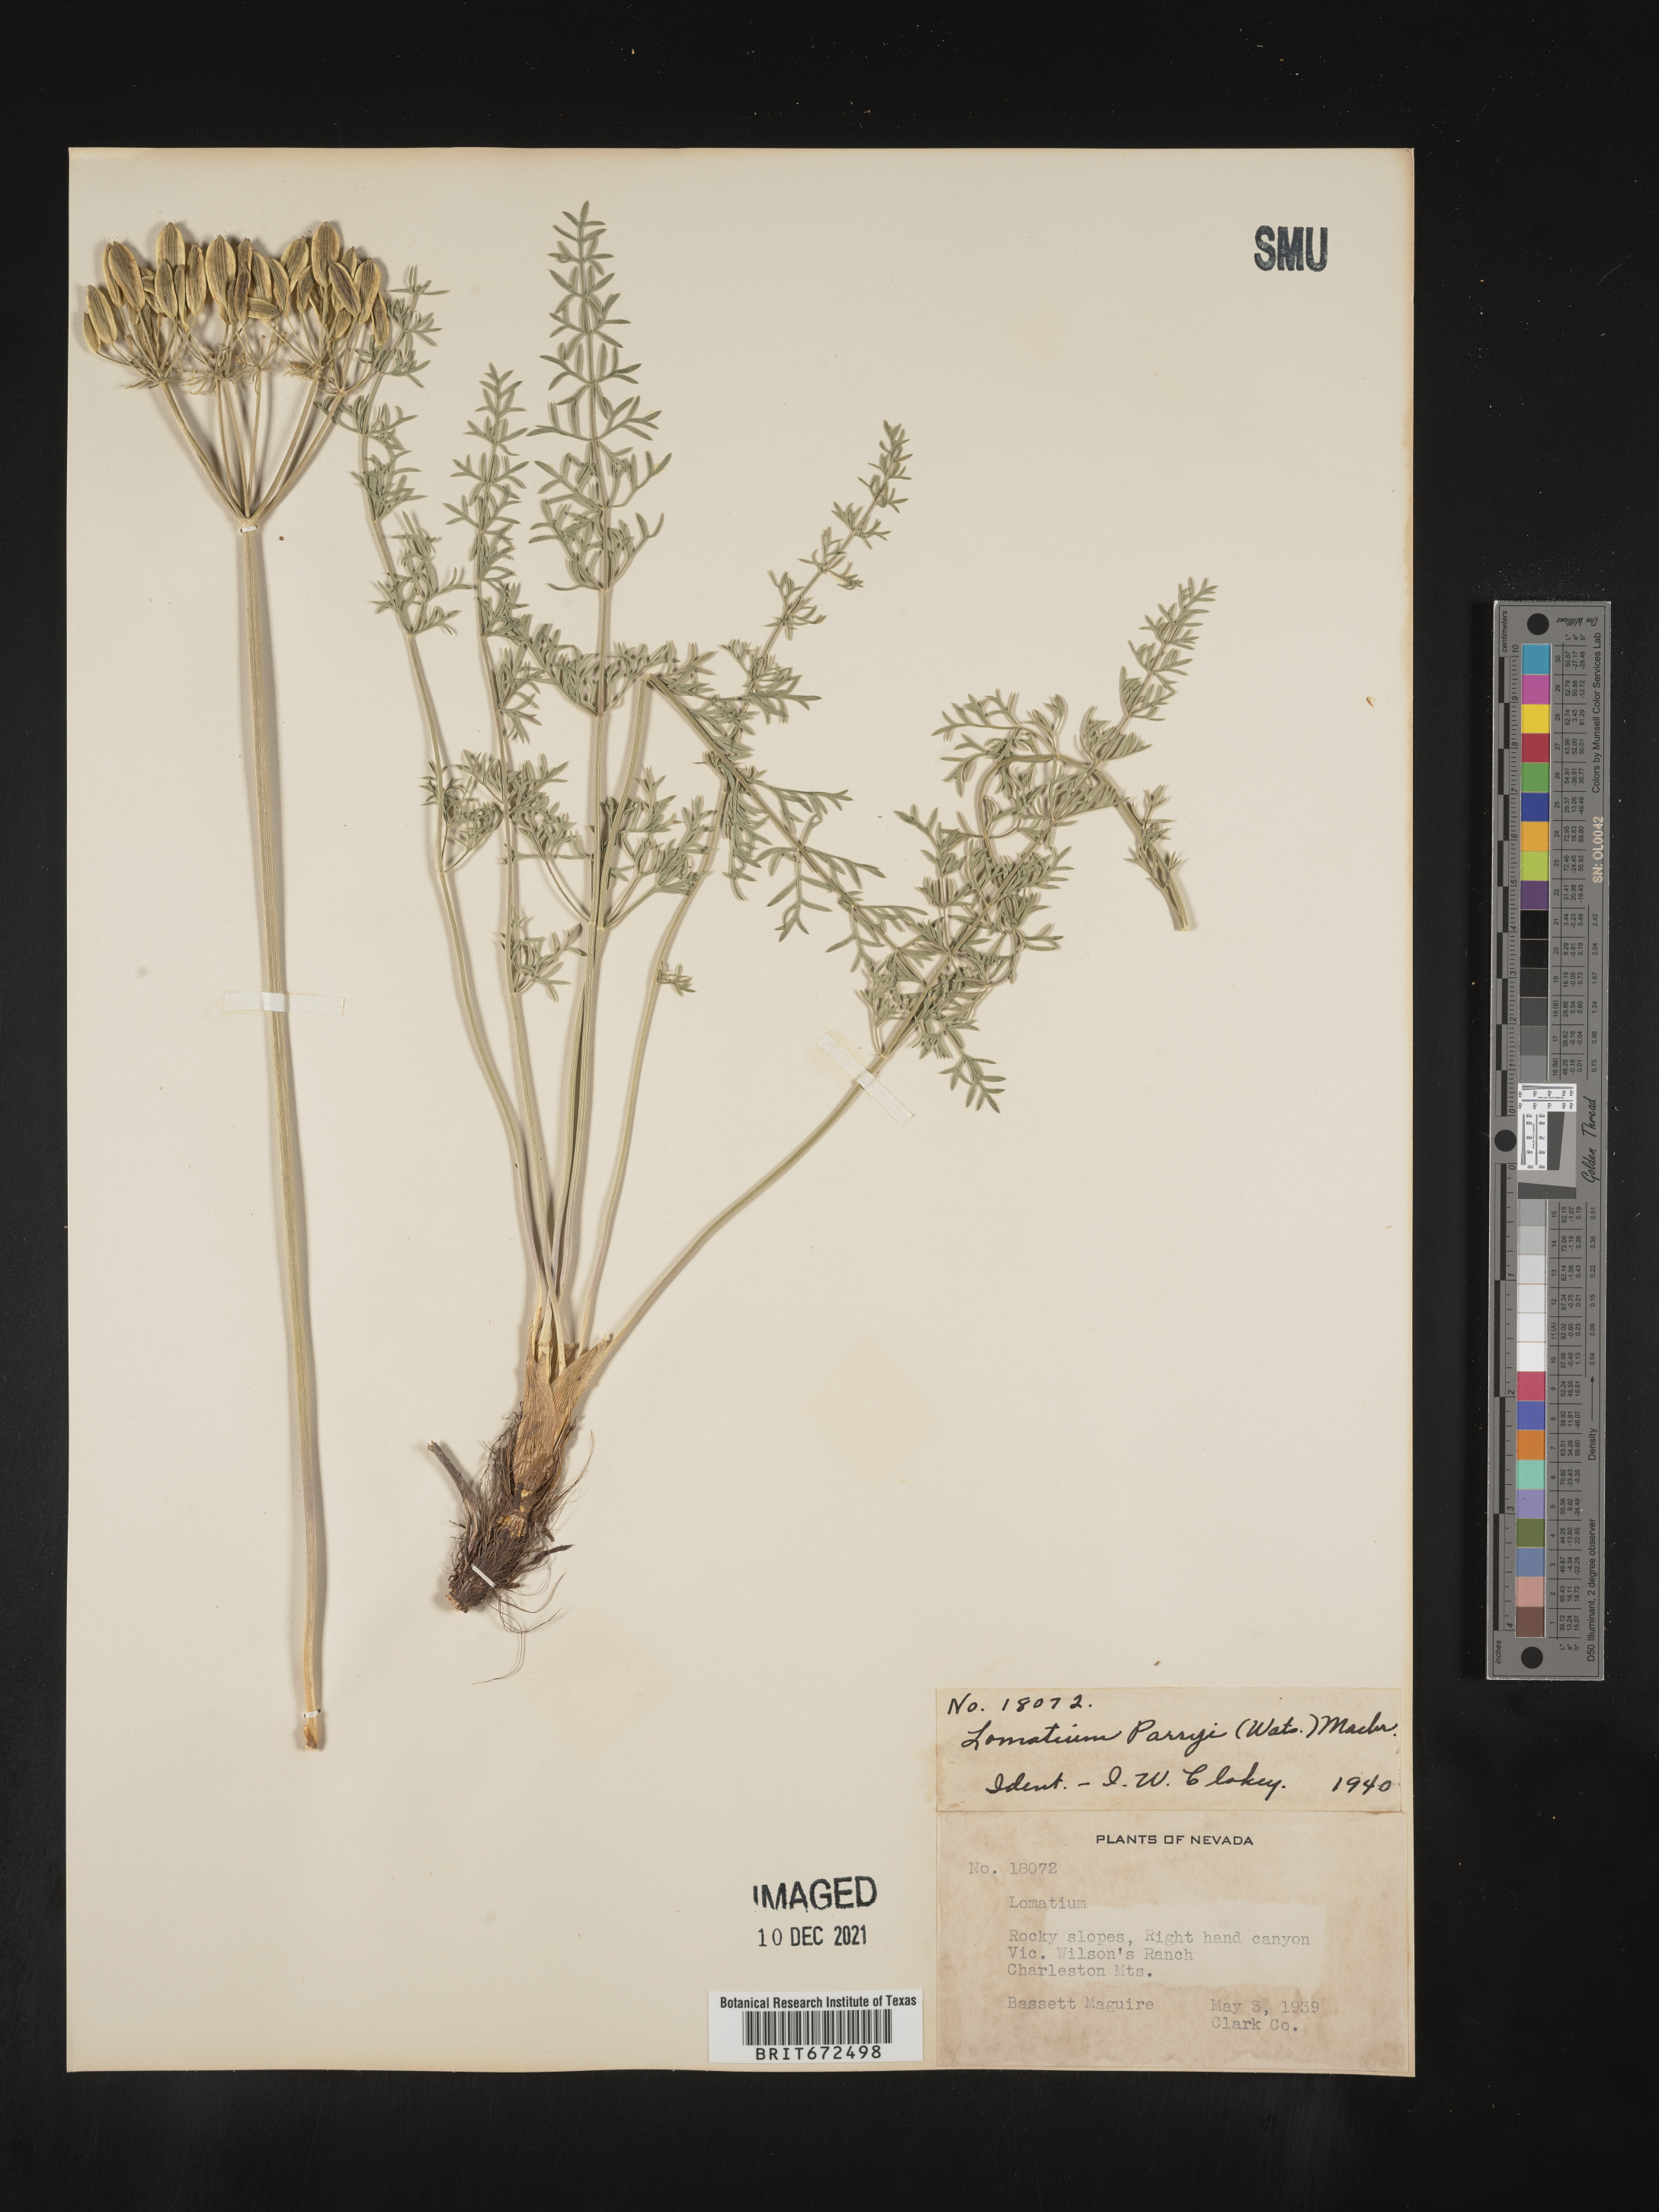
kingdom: Plantae
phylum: Tracheophyta
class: Magnoliopsida
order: Apiales
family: Apiaceae
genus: Lomatium
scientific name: Lomatium parryi
